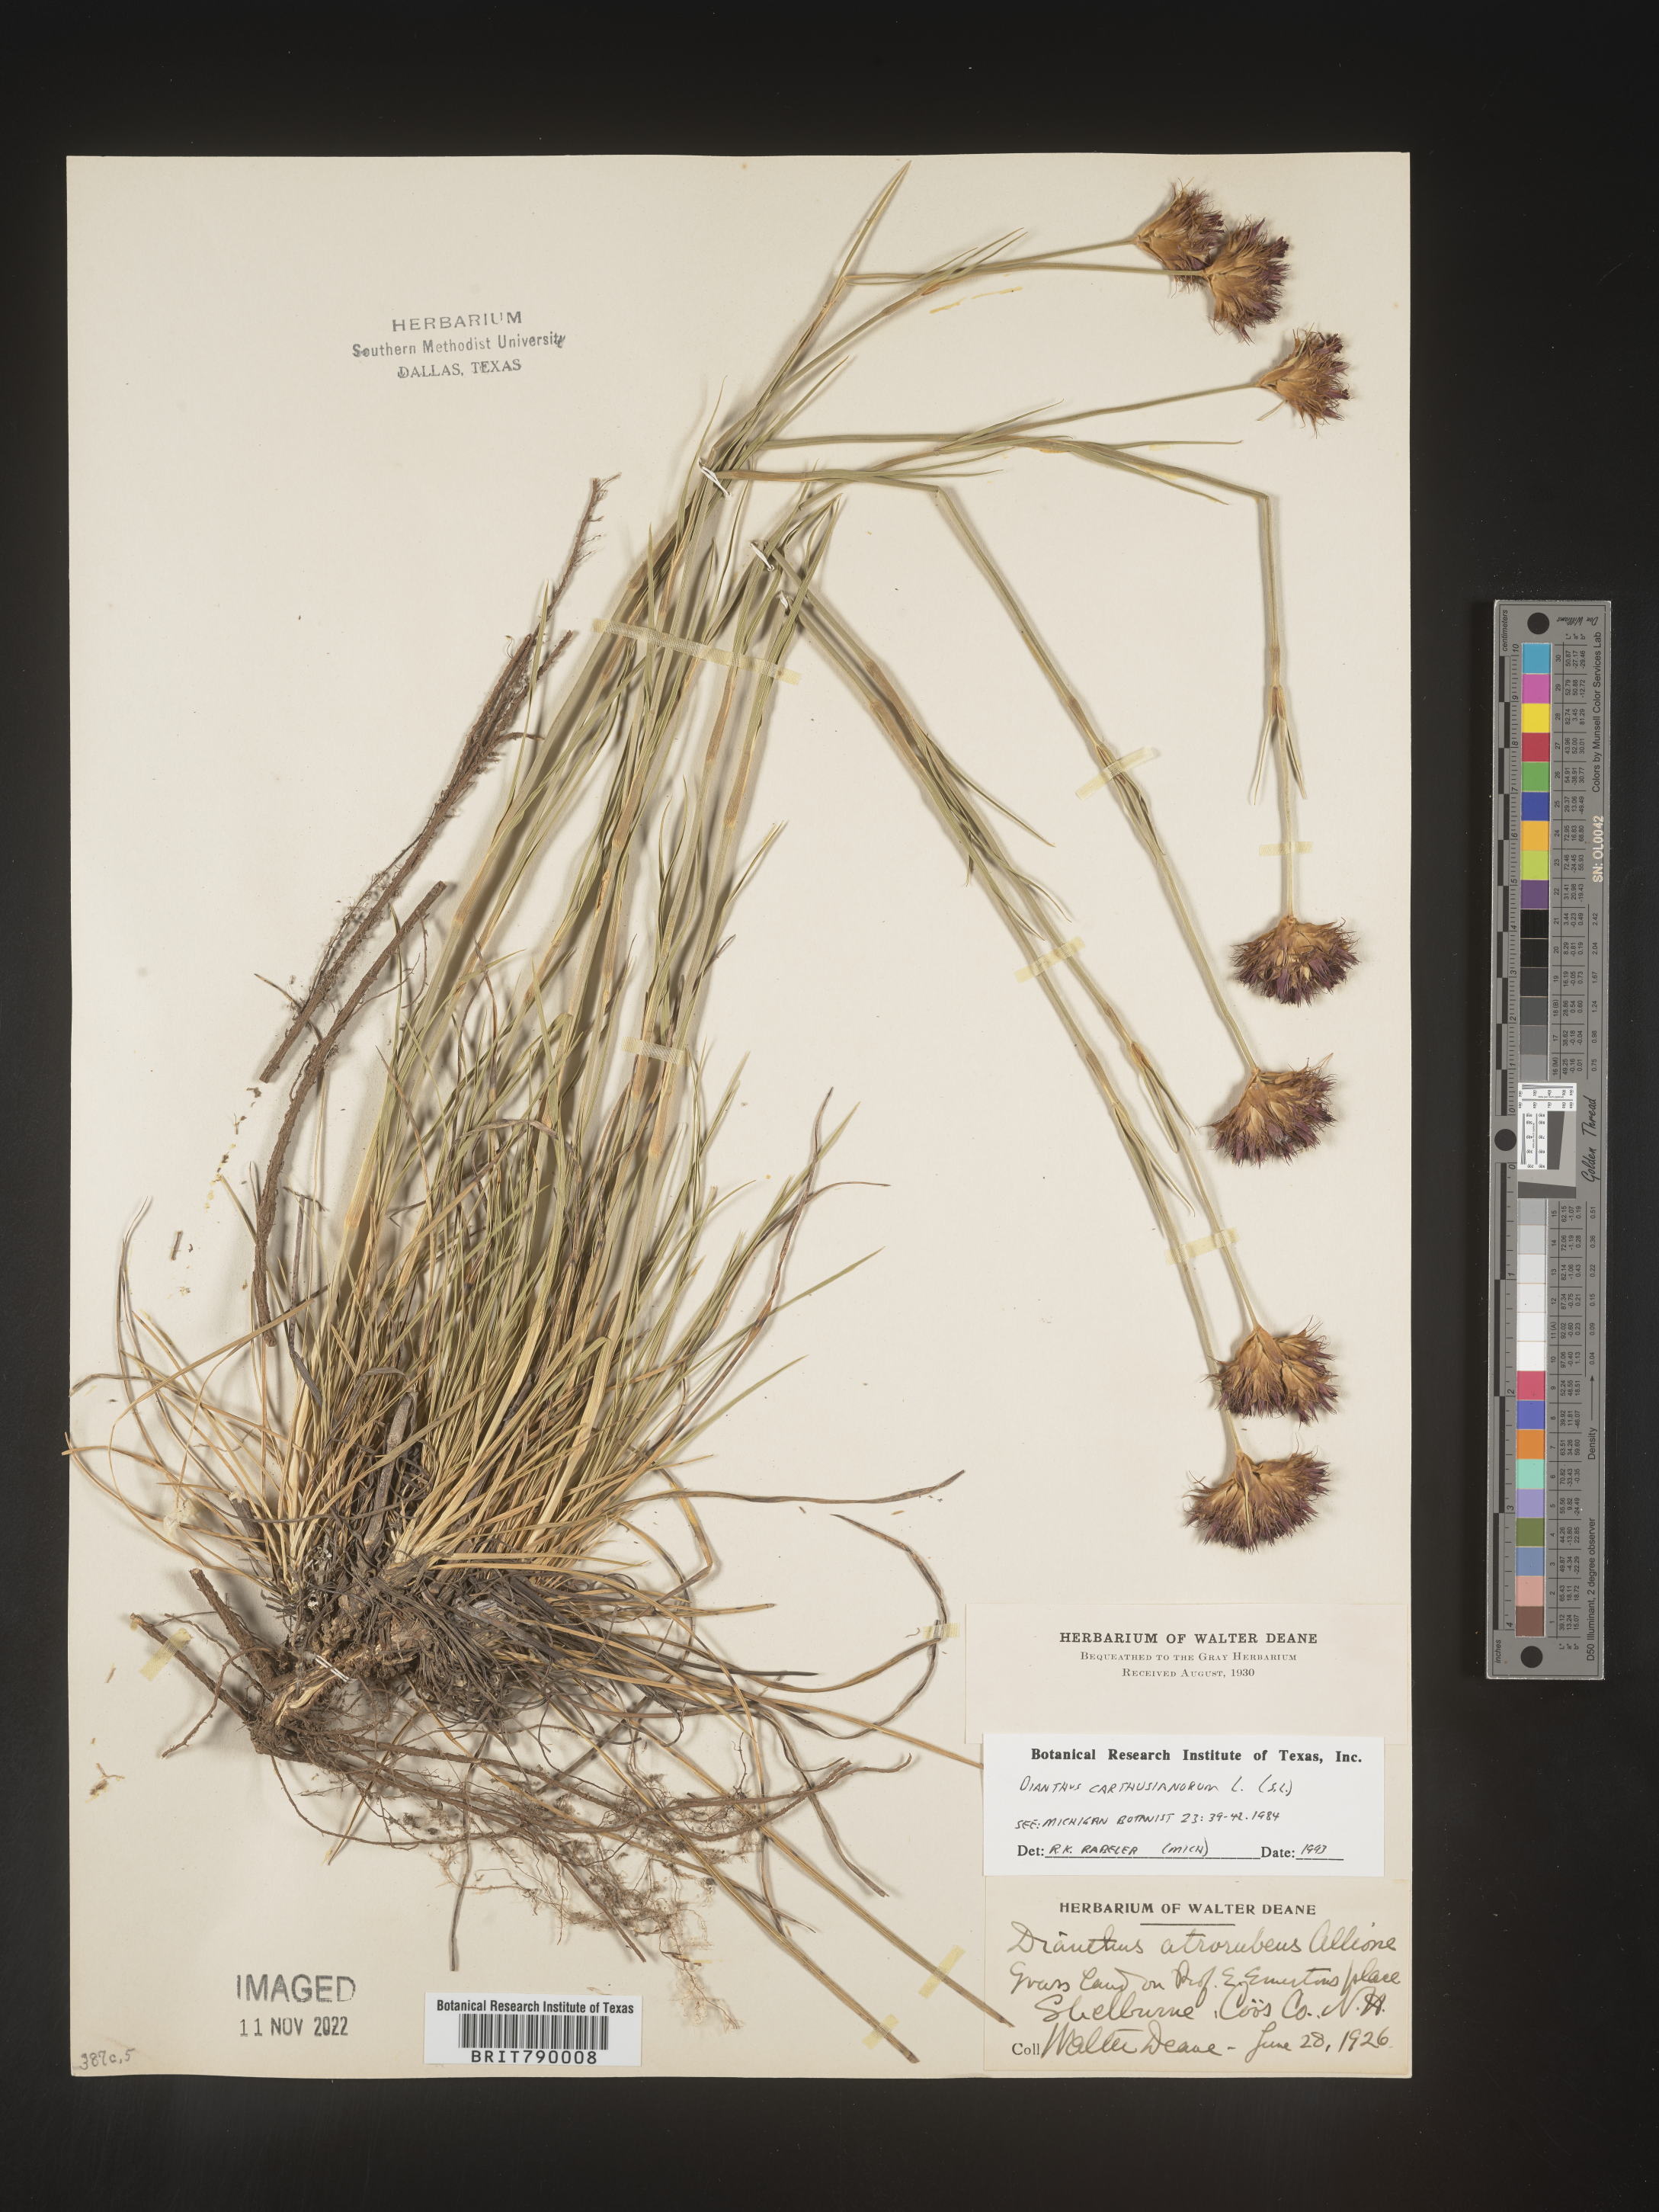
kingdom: Plantae
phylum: Tracheophyta
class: Magnoliopsida
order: Caryophyllales
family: Caryophyllaceae
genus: Dianthus
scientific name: Dianthus
